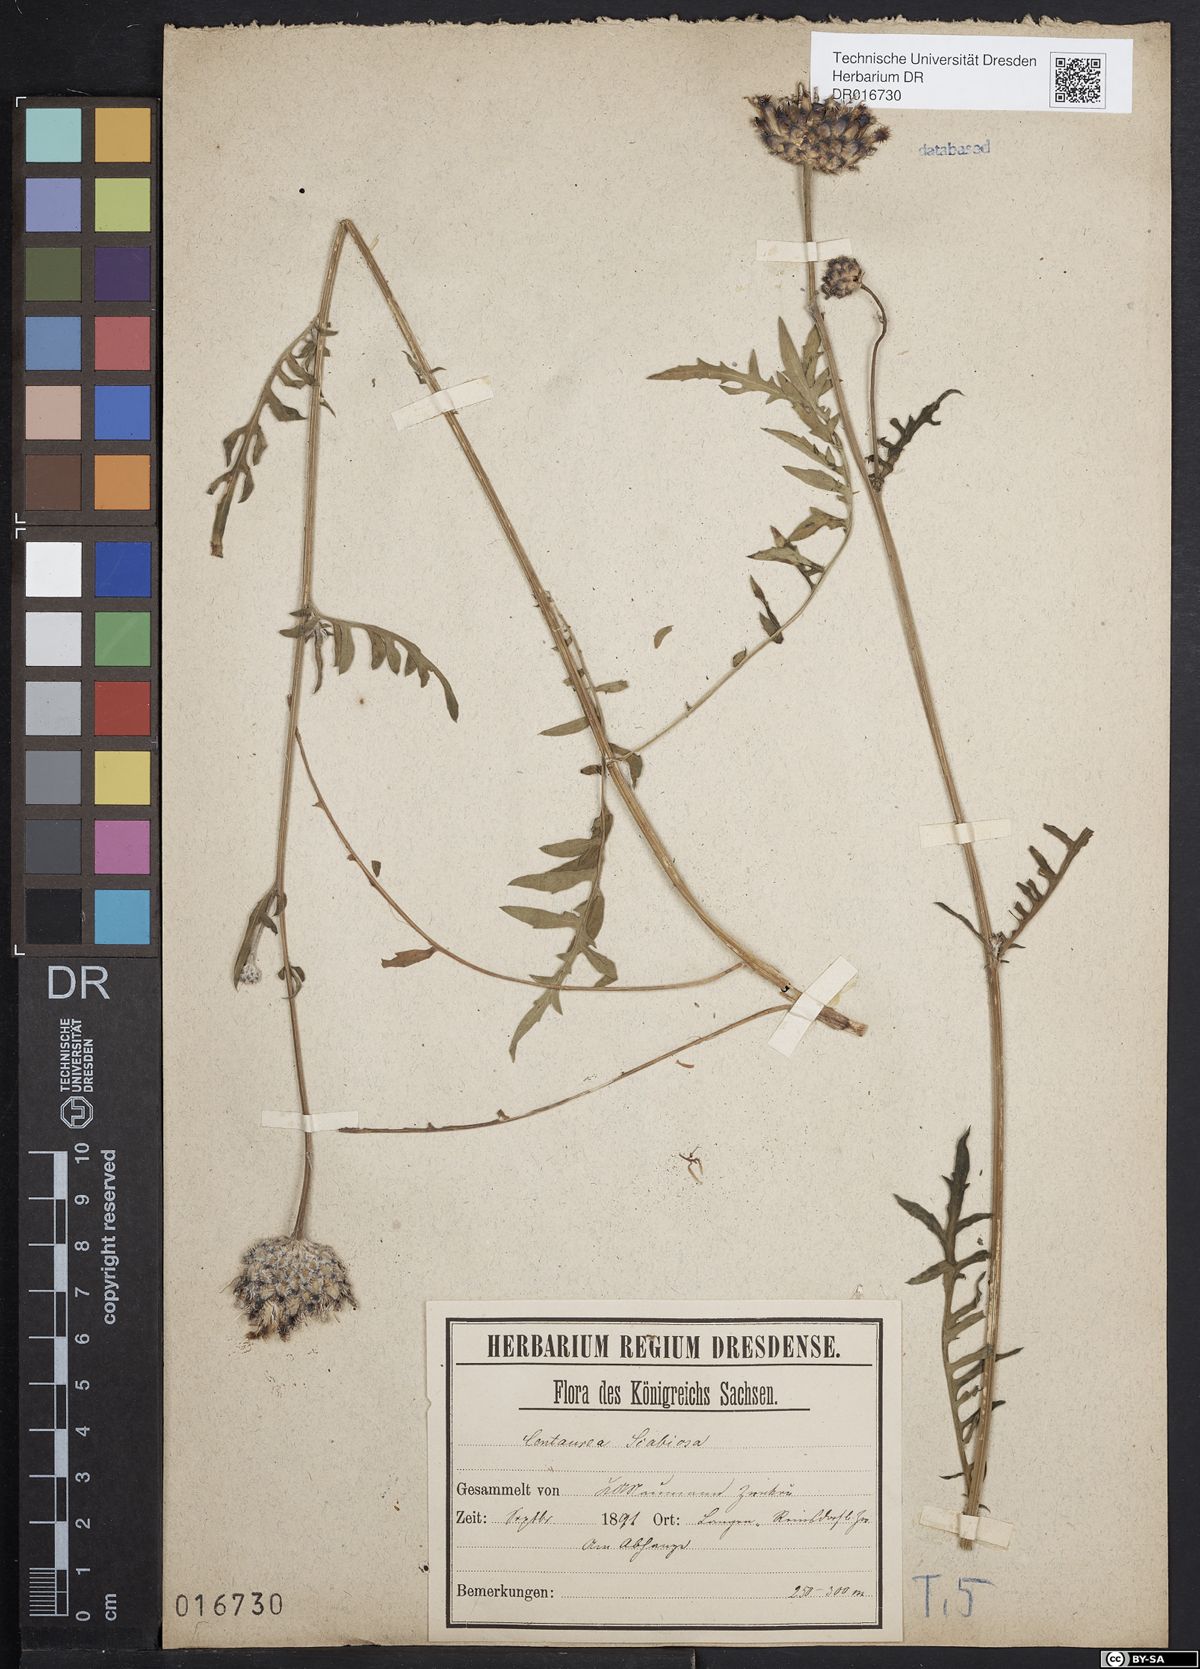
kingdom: Plantae
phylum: Tracheophyta
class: Magnoliopsida
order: Asterales
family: Asteraceae
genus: Centaurea
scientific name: Centaurea scabiosa
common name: Greater knapweed
